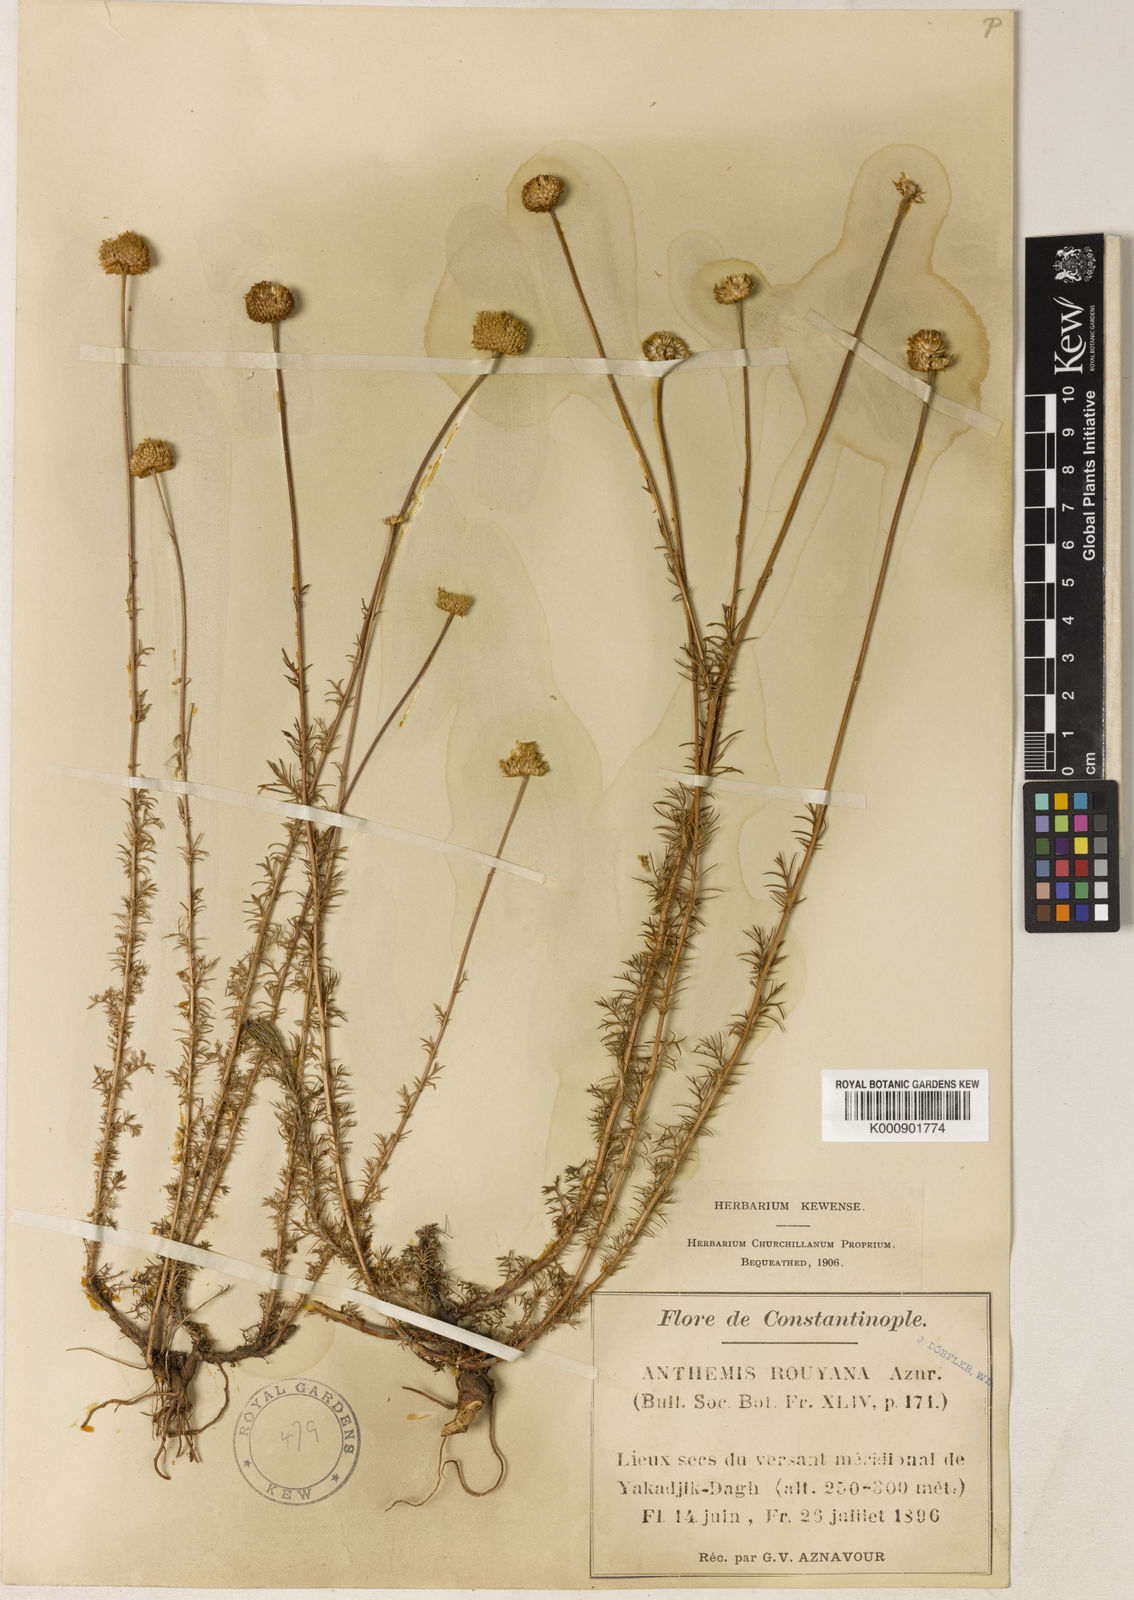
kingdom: Plantae
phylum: Tracheophyta
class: Magnoliopsida
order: Asterales
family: Asteraceae
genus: Anthemis
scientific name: Anthemis orientalis
